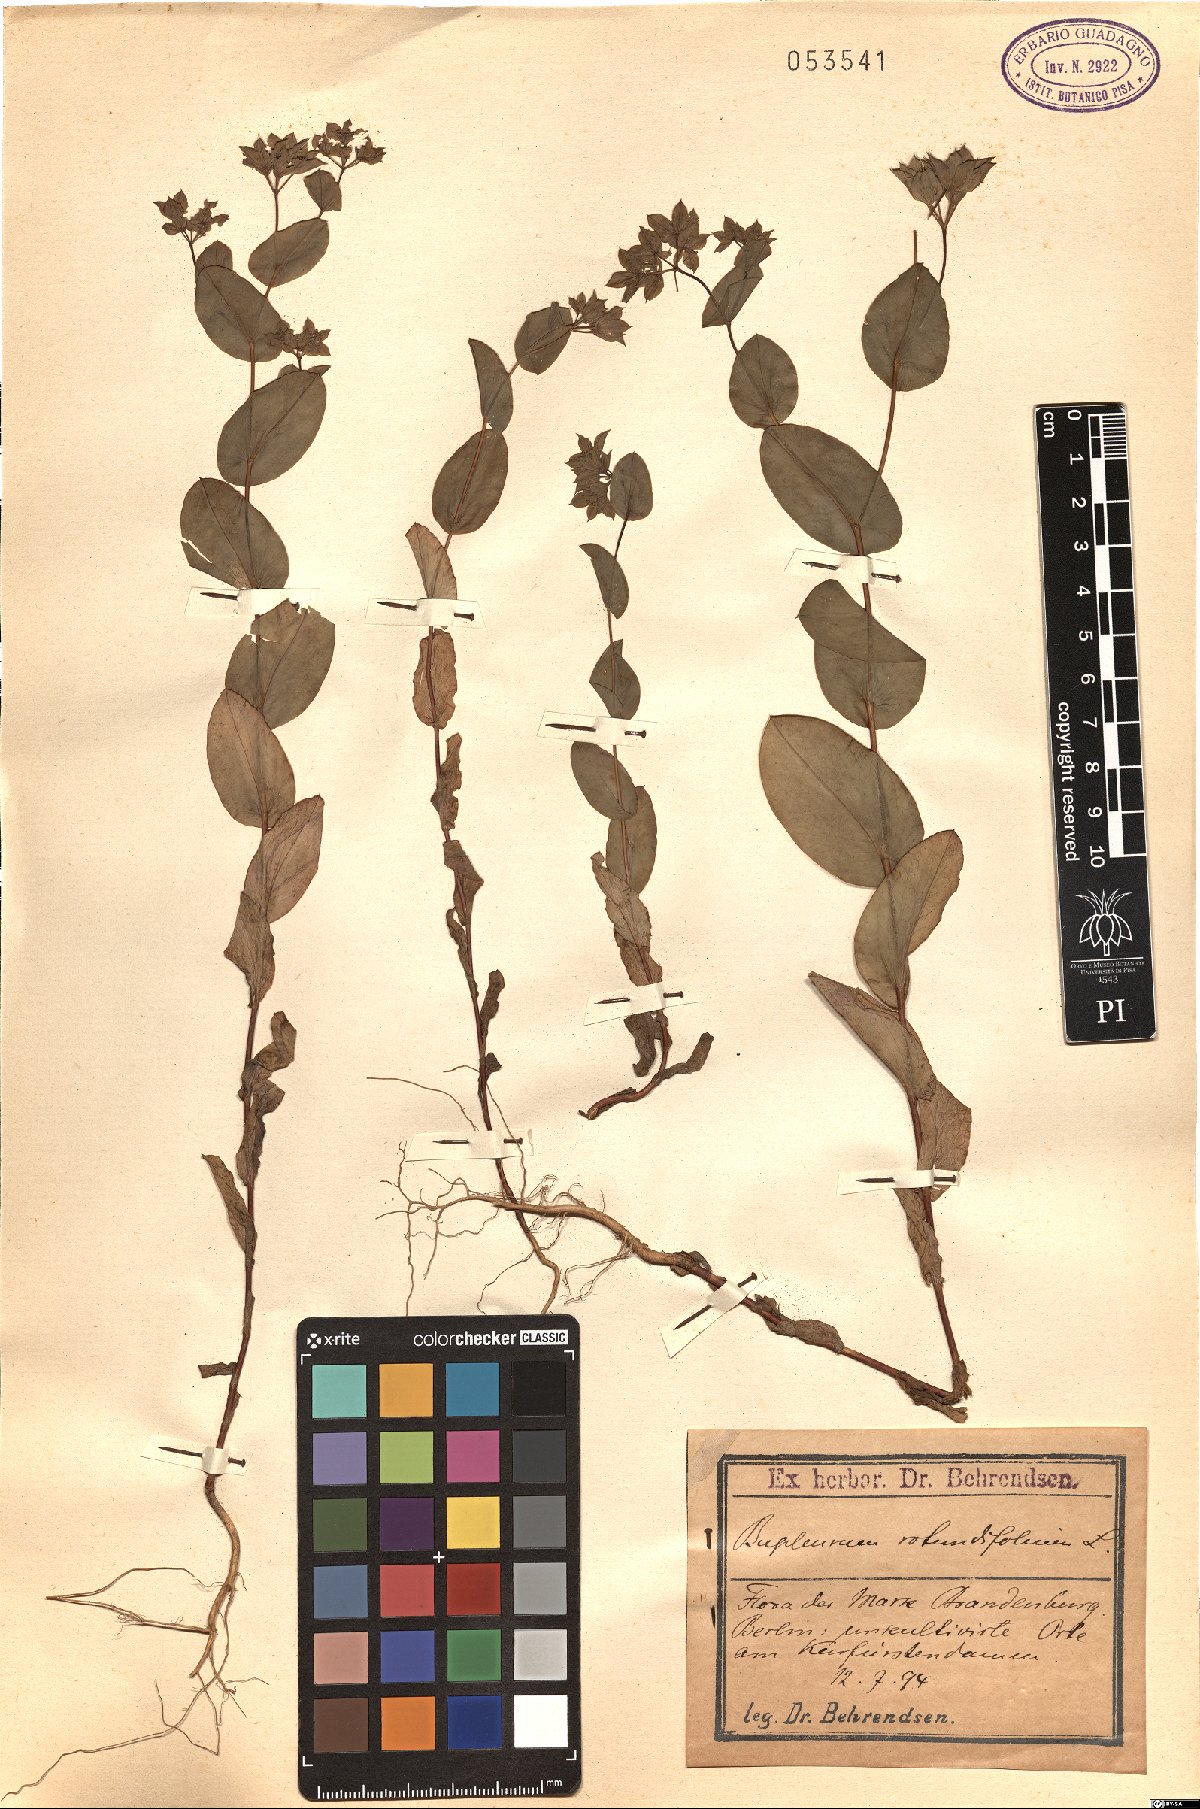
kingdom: Plantae
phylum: Tracheophyta
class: Magnoliopsida
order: Apiales
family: Apiaceae
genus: Bupleurum
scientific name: Bupleurum rotundifolium
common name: Thorow-wax
